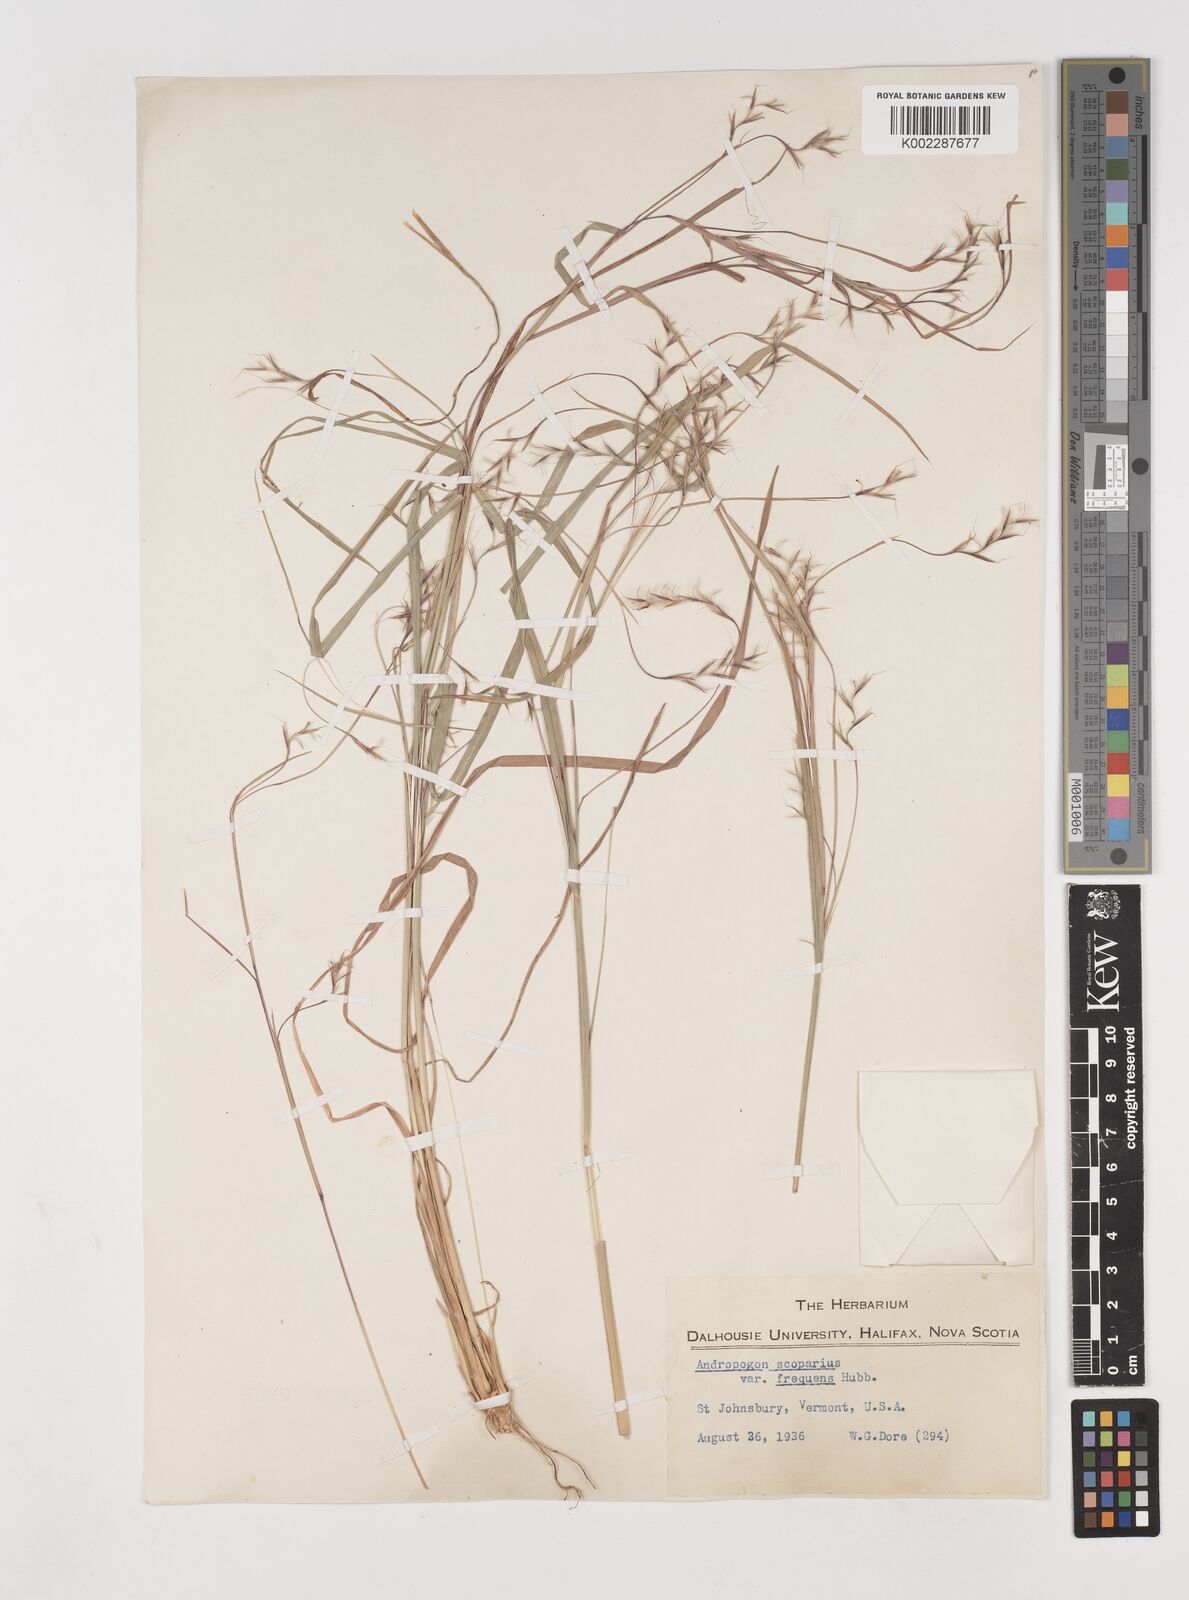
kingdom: Plantae
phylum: Tracheophyta
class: Liliopsida
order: Poales
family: Poaceae
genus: Schizachyrium
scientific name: Schizachyrium scoparium
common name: Little bluestem
